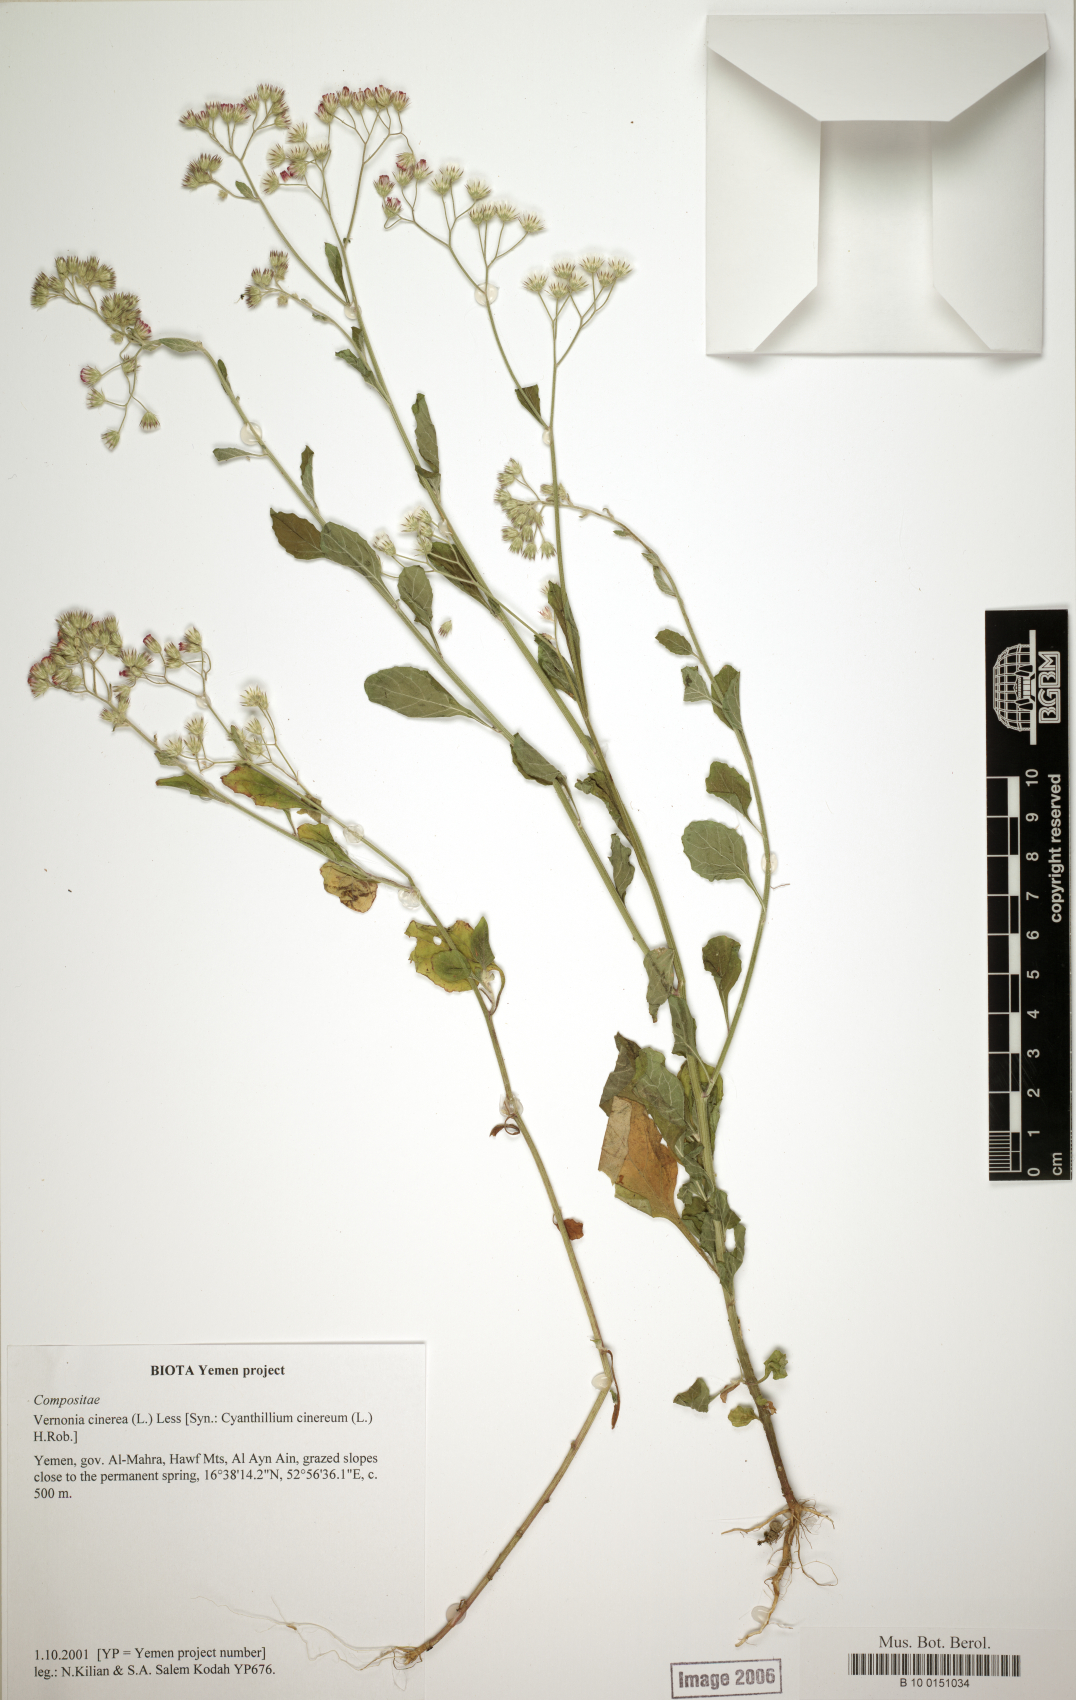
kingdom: Plantae
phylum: Tracheophyta
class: Magnoliopsida
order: Asterales
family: Asteraceae
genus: Cyanthillium
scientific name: Cyanthillium cinereum
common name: Little ironweed
